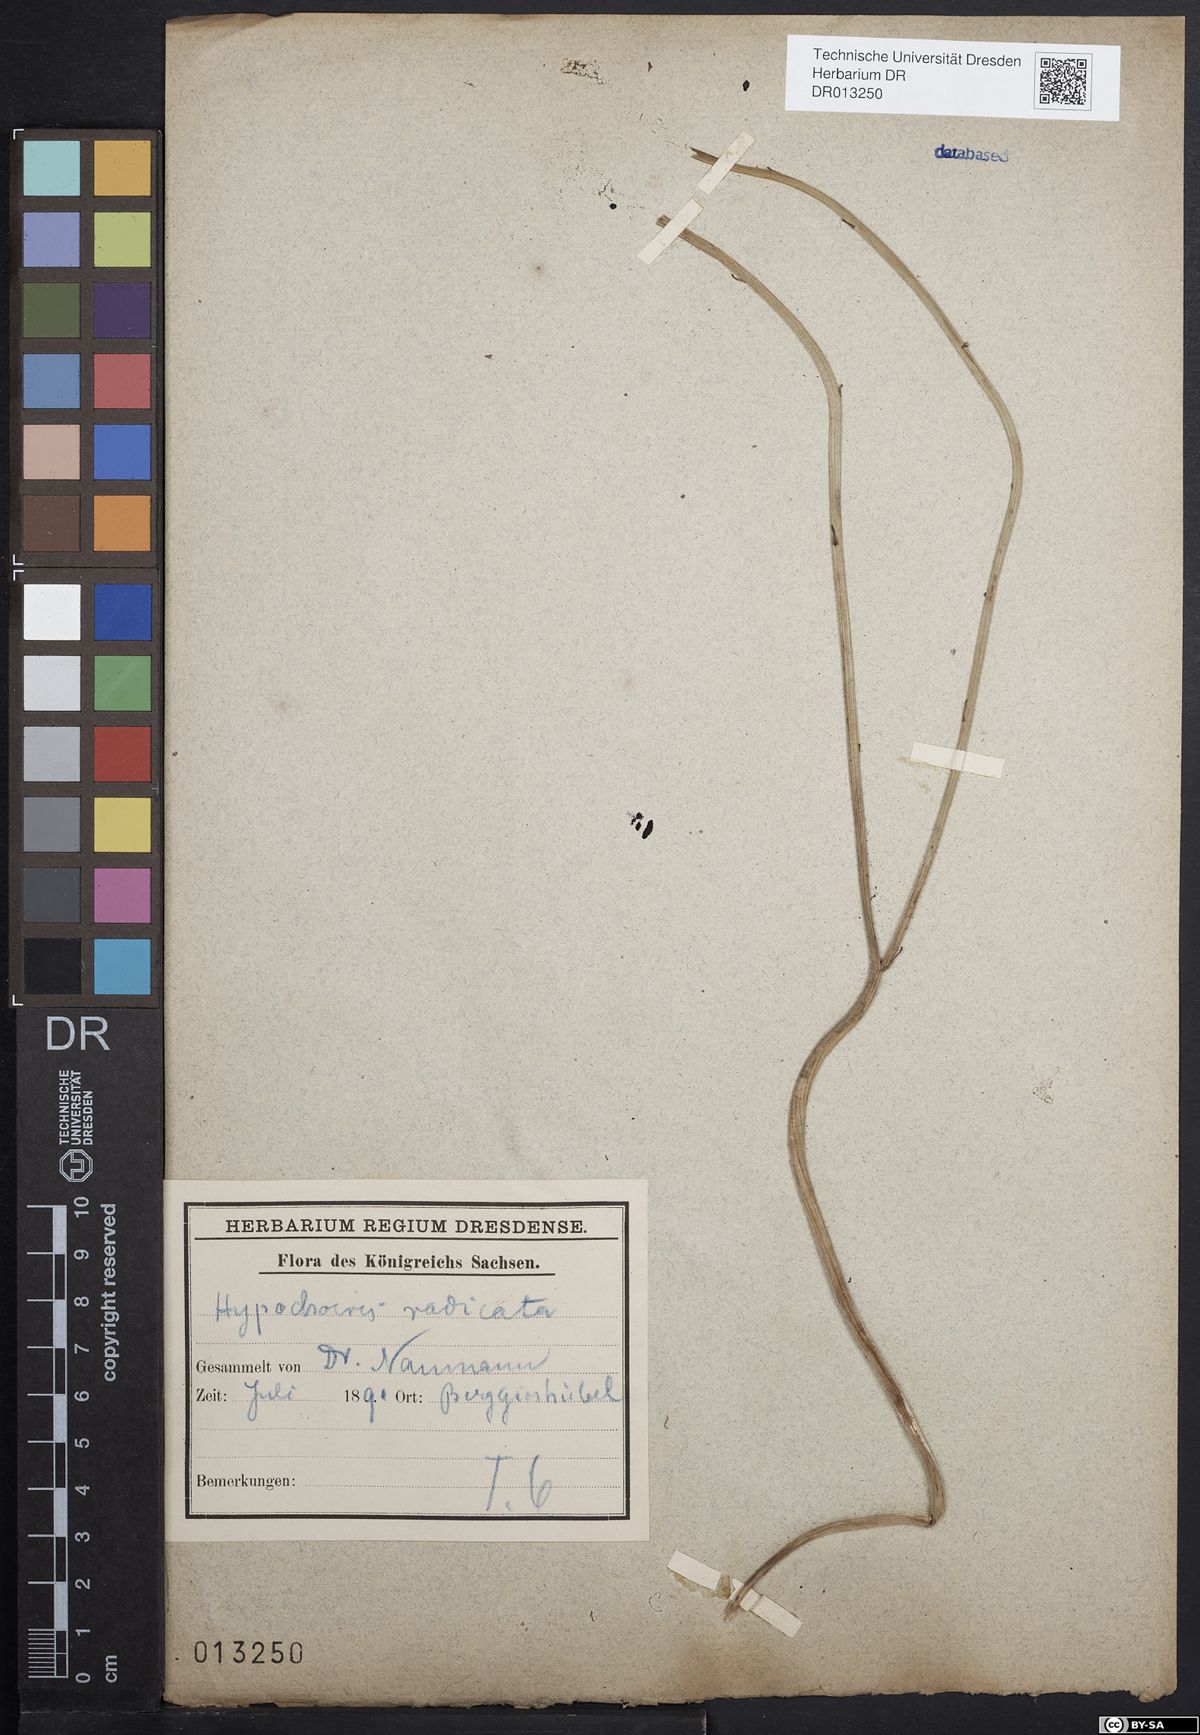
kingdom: Plantae
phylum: Tracheophyta
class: Magnoliopsida
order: Asterales
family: Asteraceae
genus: Hypochaeris
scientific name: Hypochaeris radicata
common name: Flatweed
